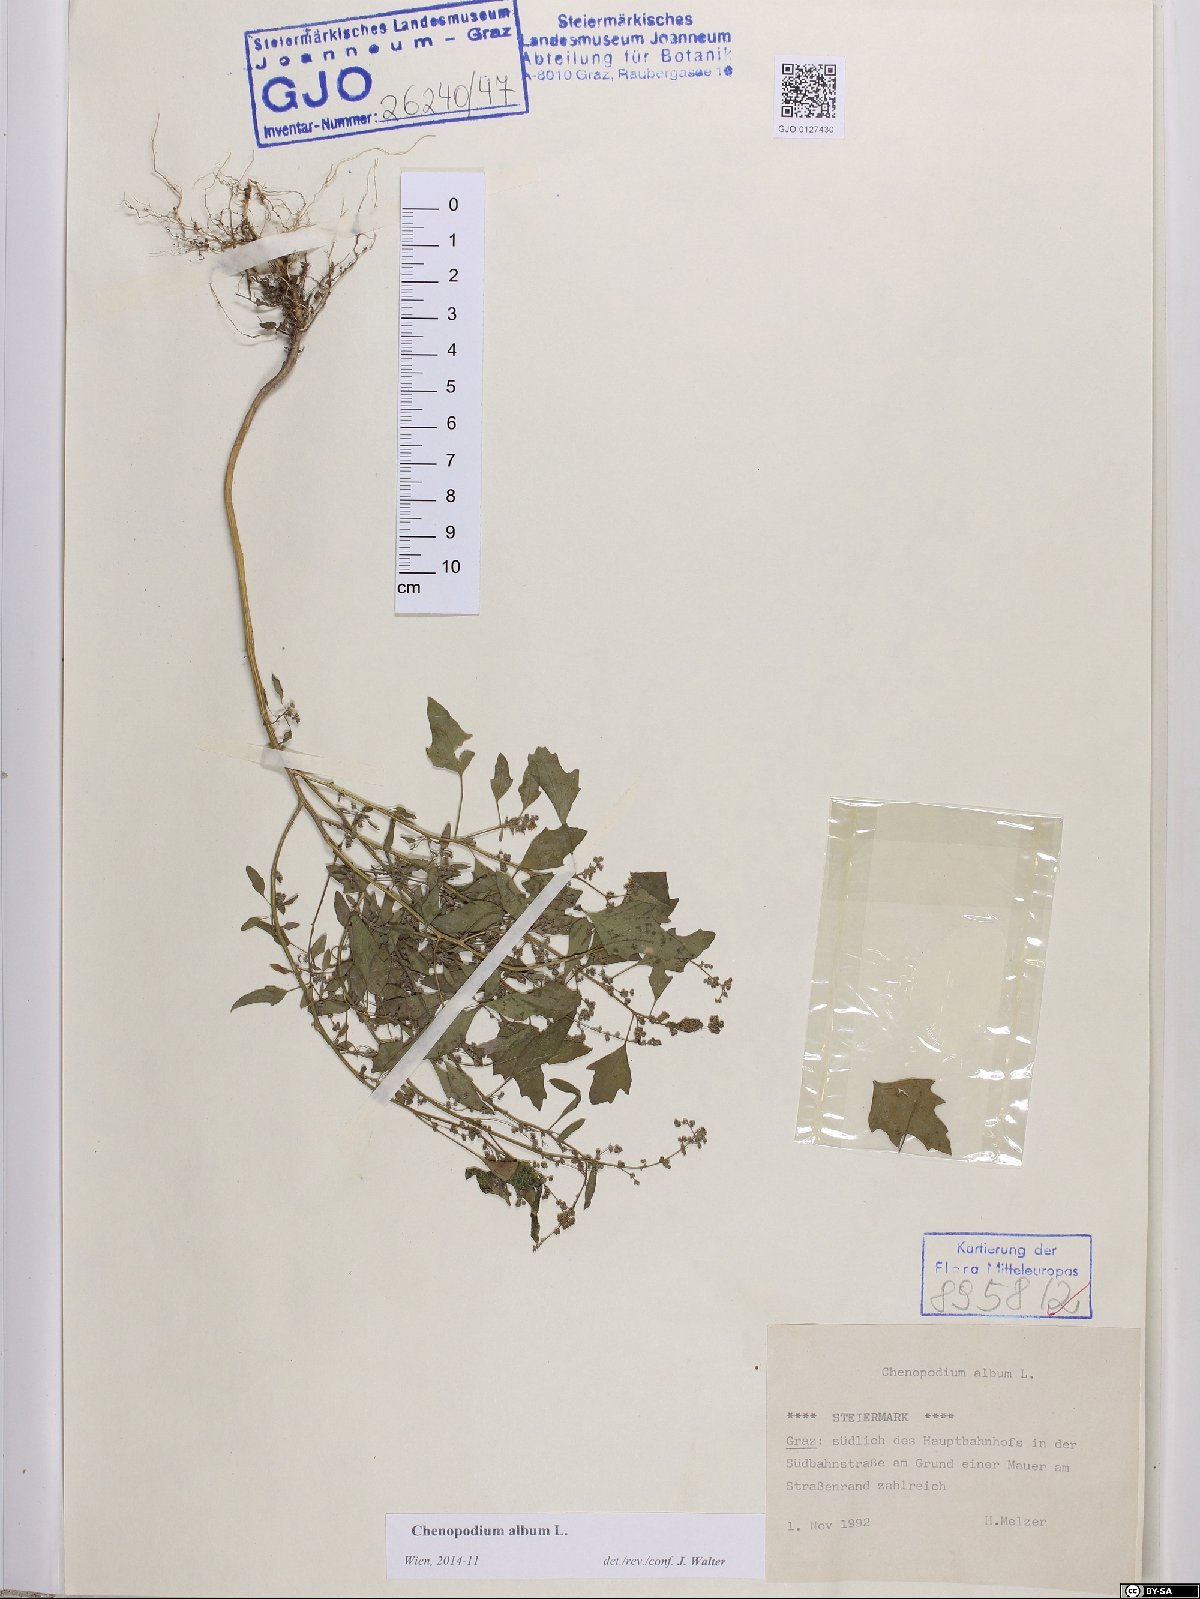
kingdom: Plantae
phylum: Tracheophyta
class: Magnoliopsida
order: Caryophyllales
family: Amaranthaceae
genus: Chenopodium
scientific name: Chenopodium album
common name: Fat-hen
